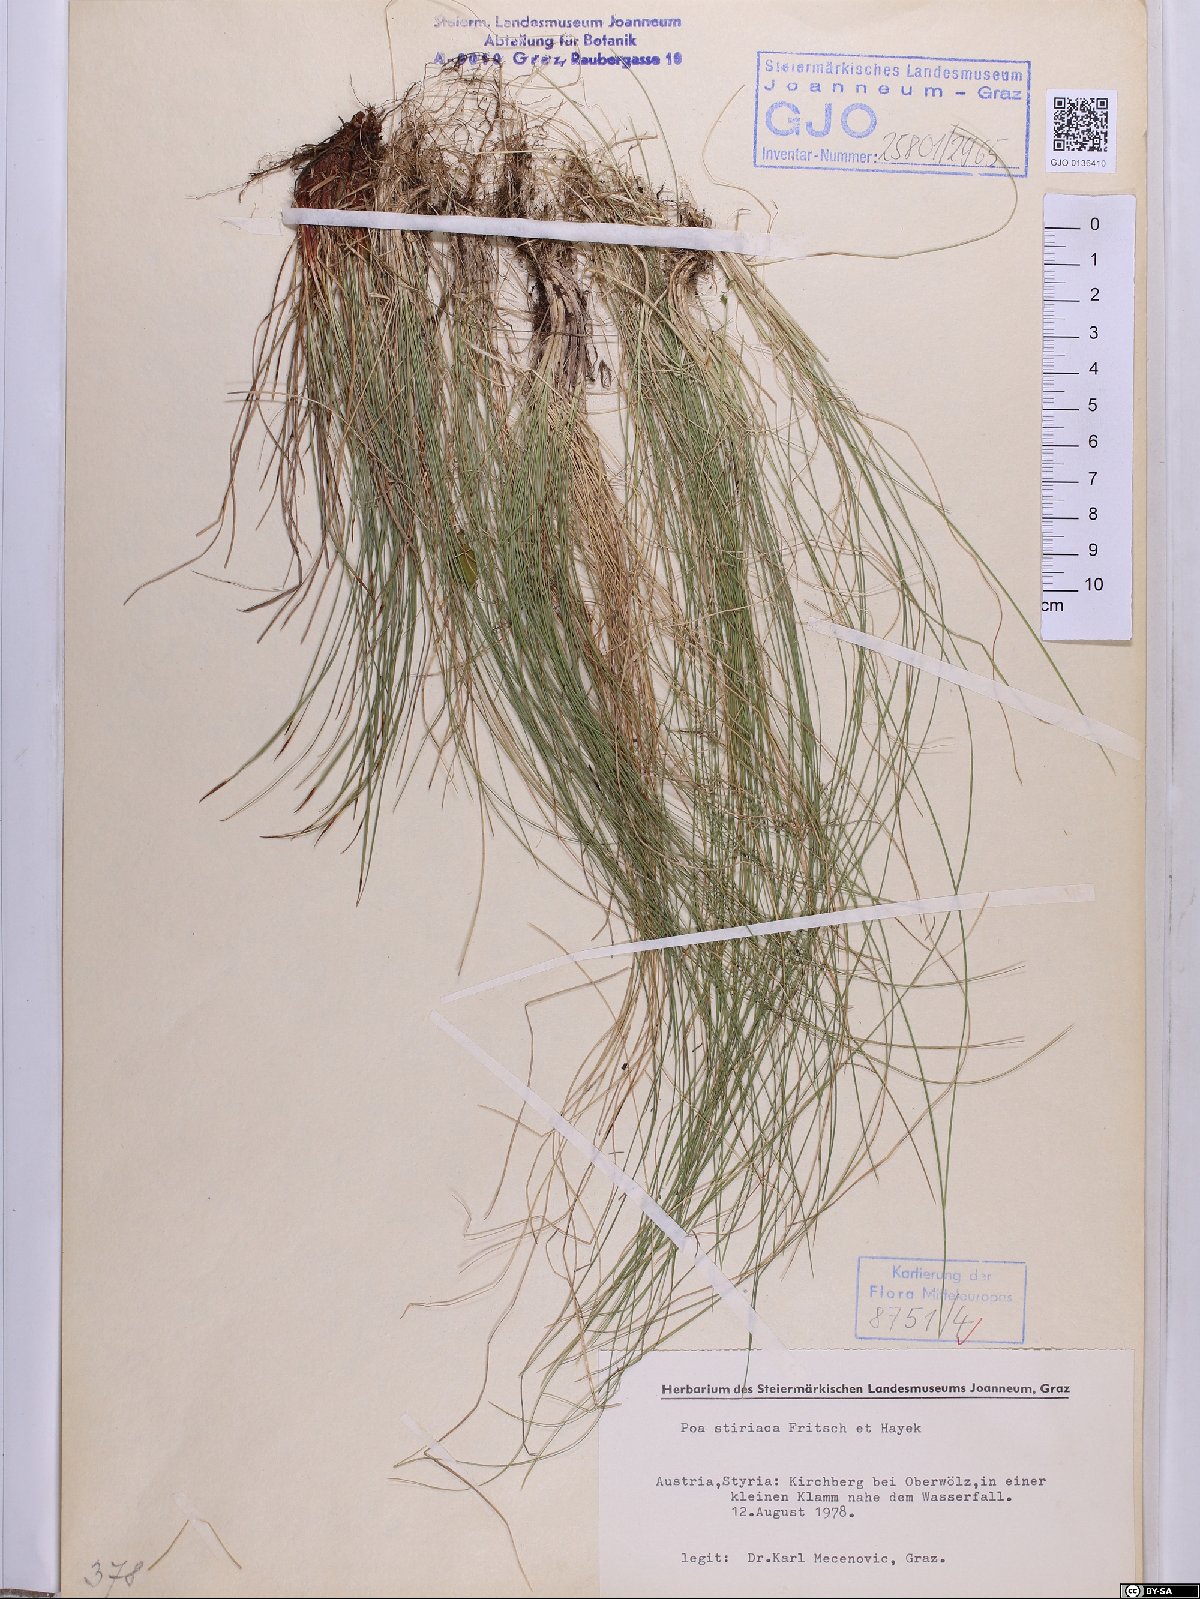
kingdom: Plantae
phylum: Tracheophyta
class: Liliopsida
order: Poales
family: Poaceae
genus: Poa
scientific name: Poa stiriaca
